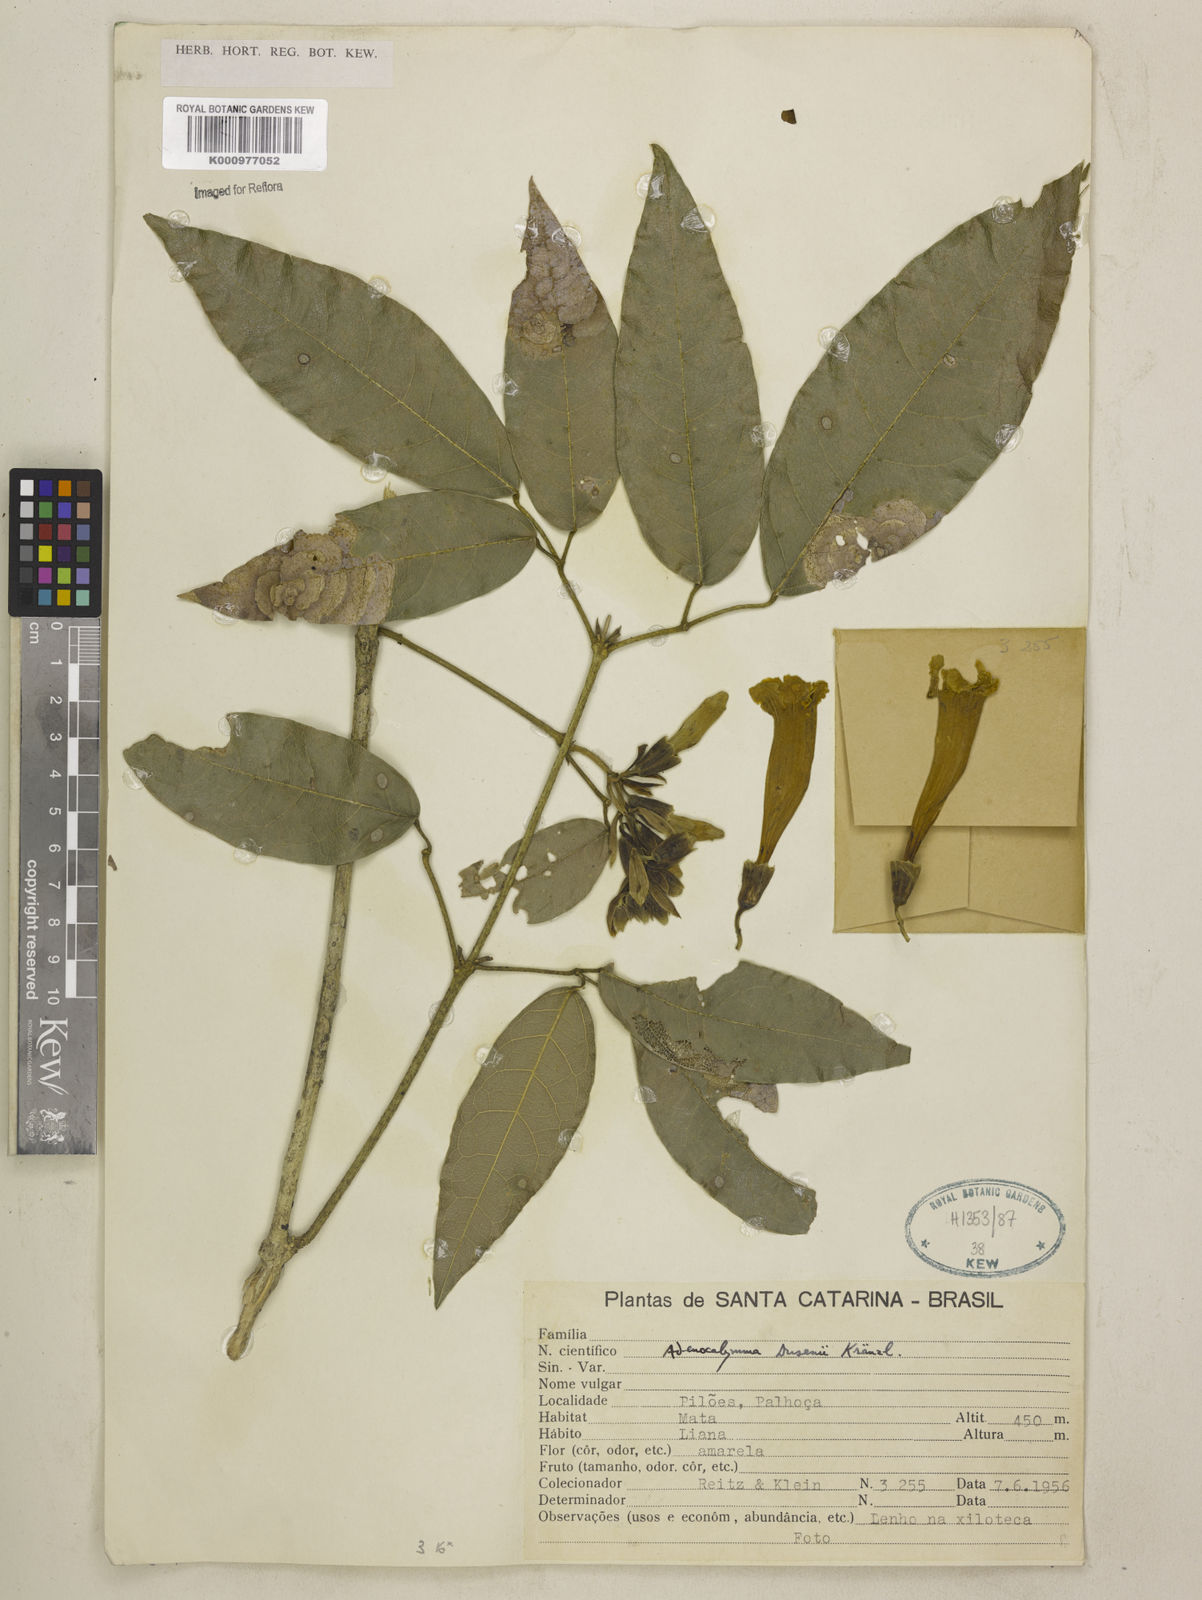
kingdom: Plantae
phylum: Tracheophyta
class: Magnoliopsida
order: Lamiales
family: Bignoniaceae
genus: Adenocalymma
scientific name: Adenocalymma dusenii
